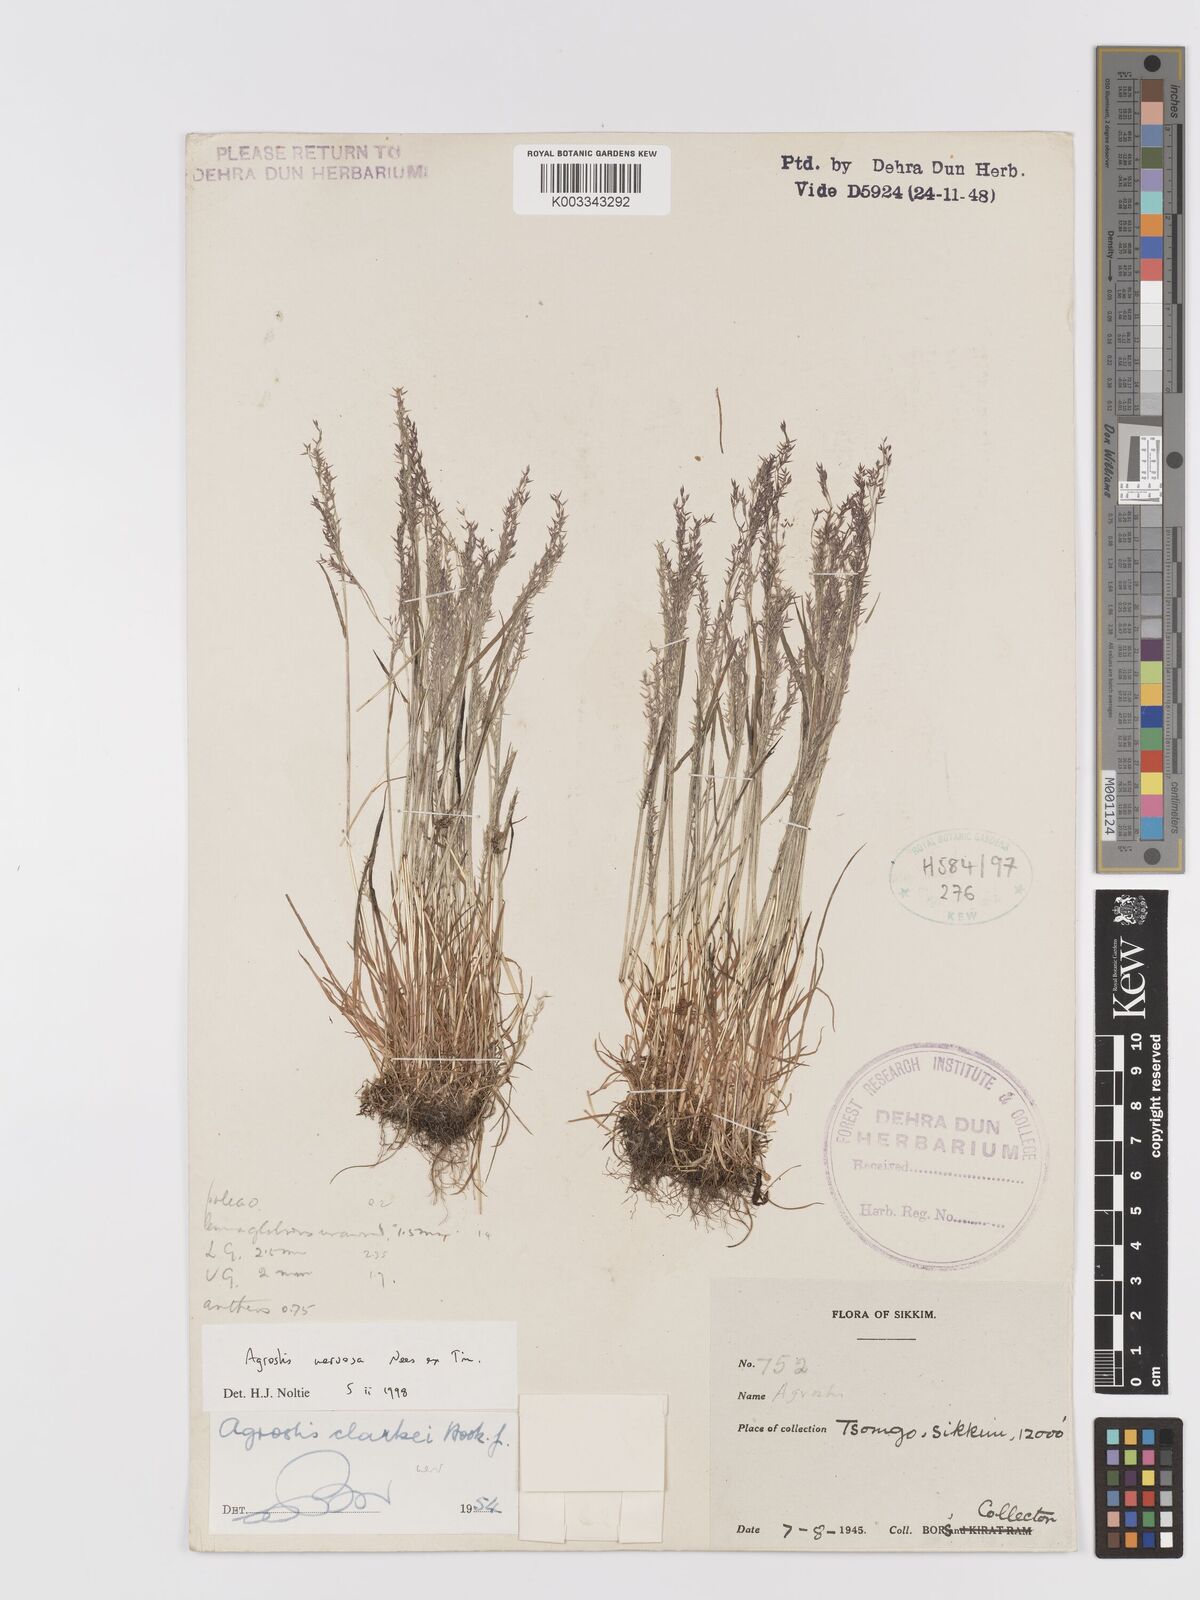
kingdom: Plantae
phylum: Tracheophyta
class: Liliopsida
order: Poales
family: Poaceae
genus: Agrostis
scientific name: Agrostis nervosa
